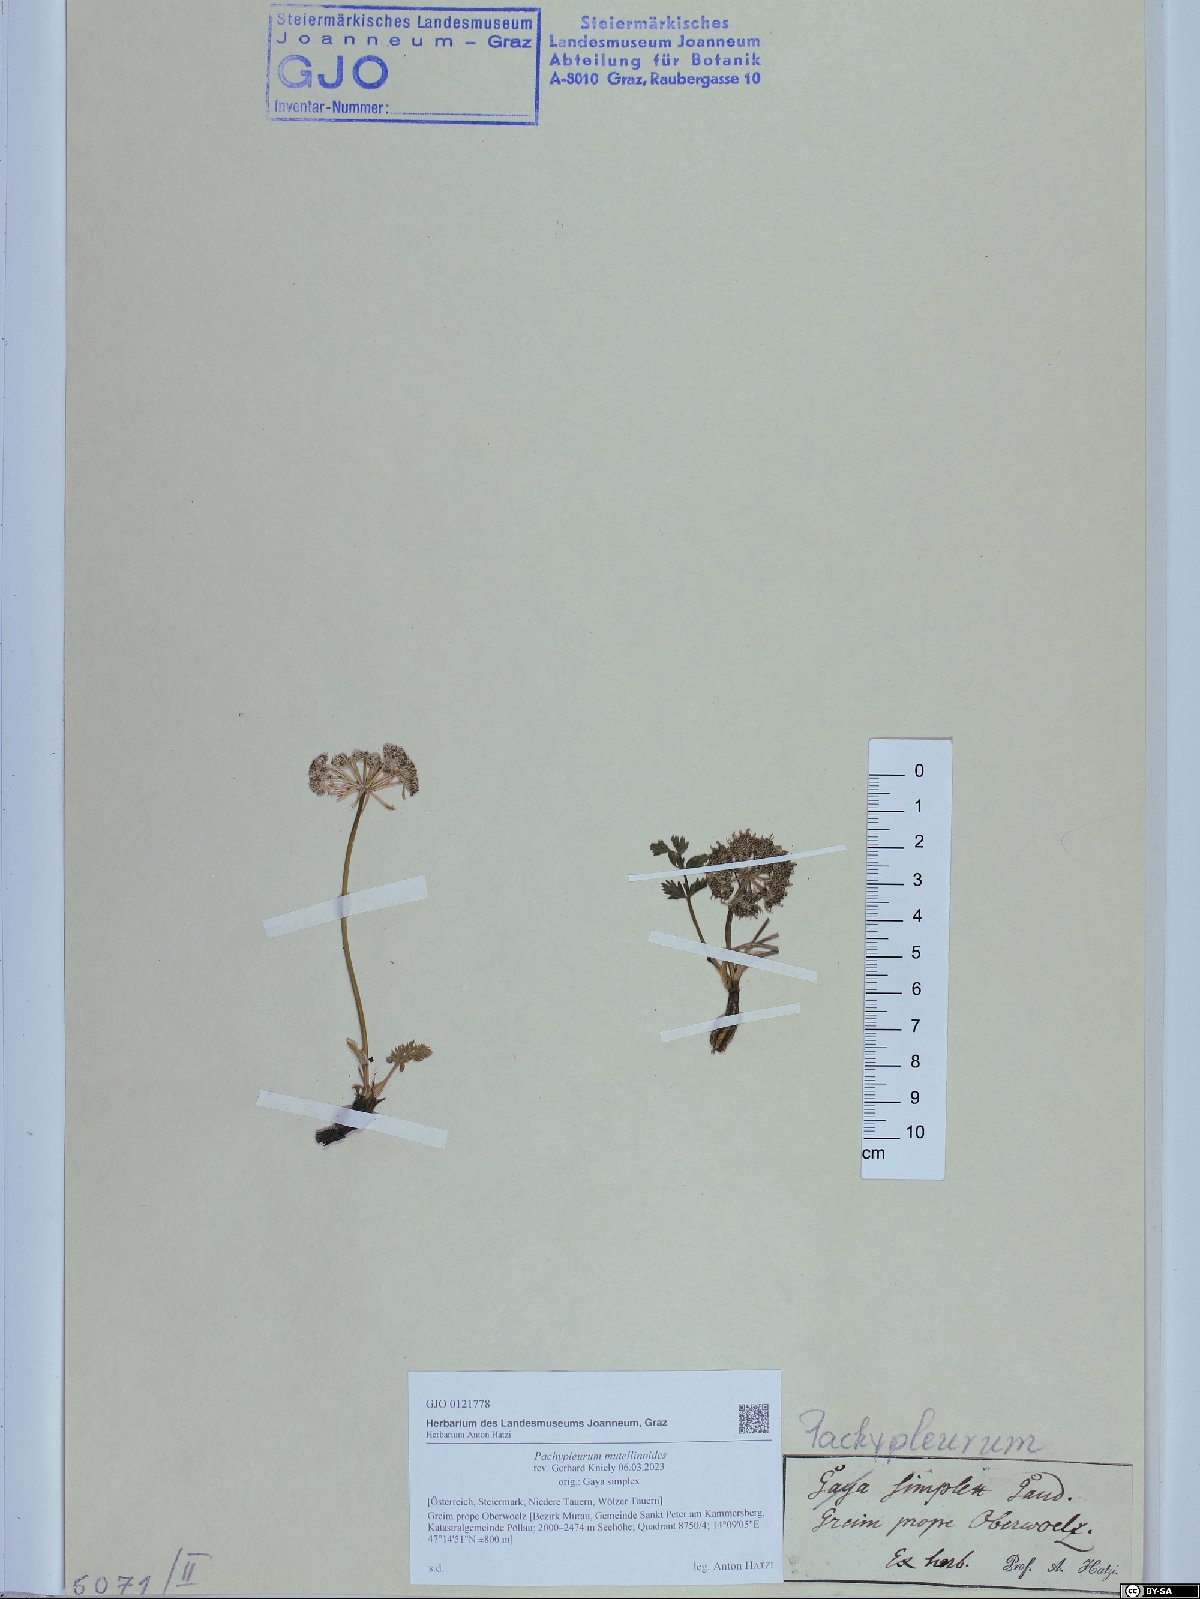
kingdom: Plantae
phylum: Tracheophyta
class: Magnoliopsida
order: Apiales
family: Apiaceae
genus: Pachypleurum
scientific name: Pachypleurum mutellinoides
